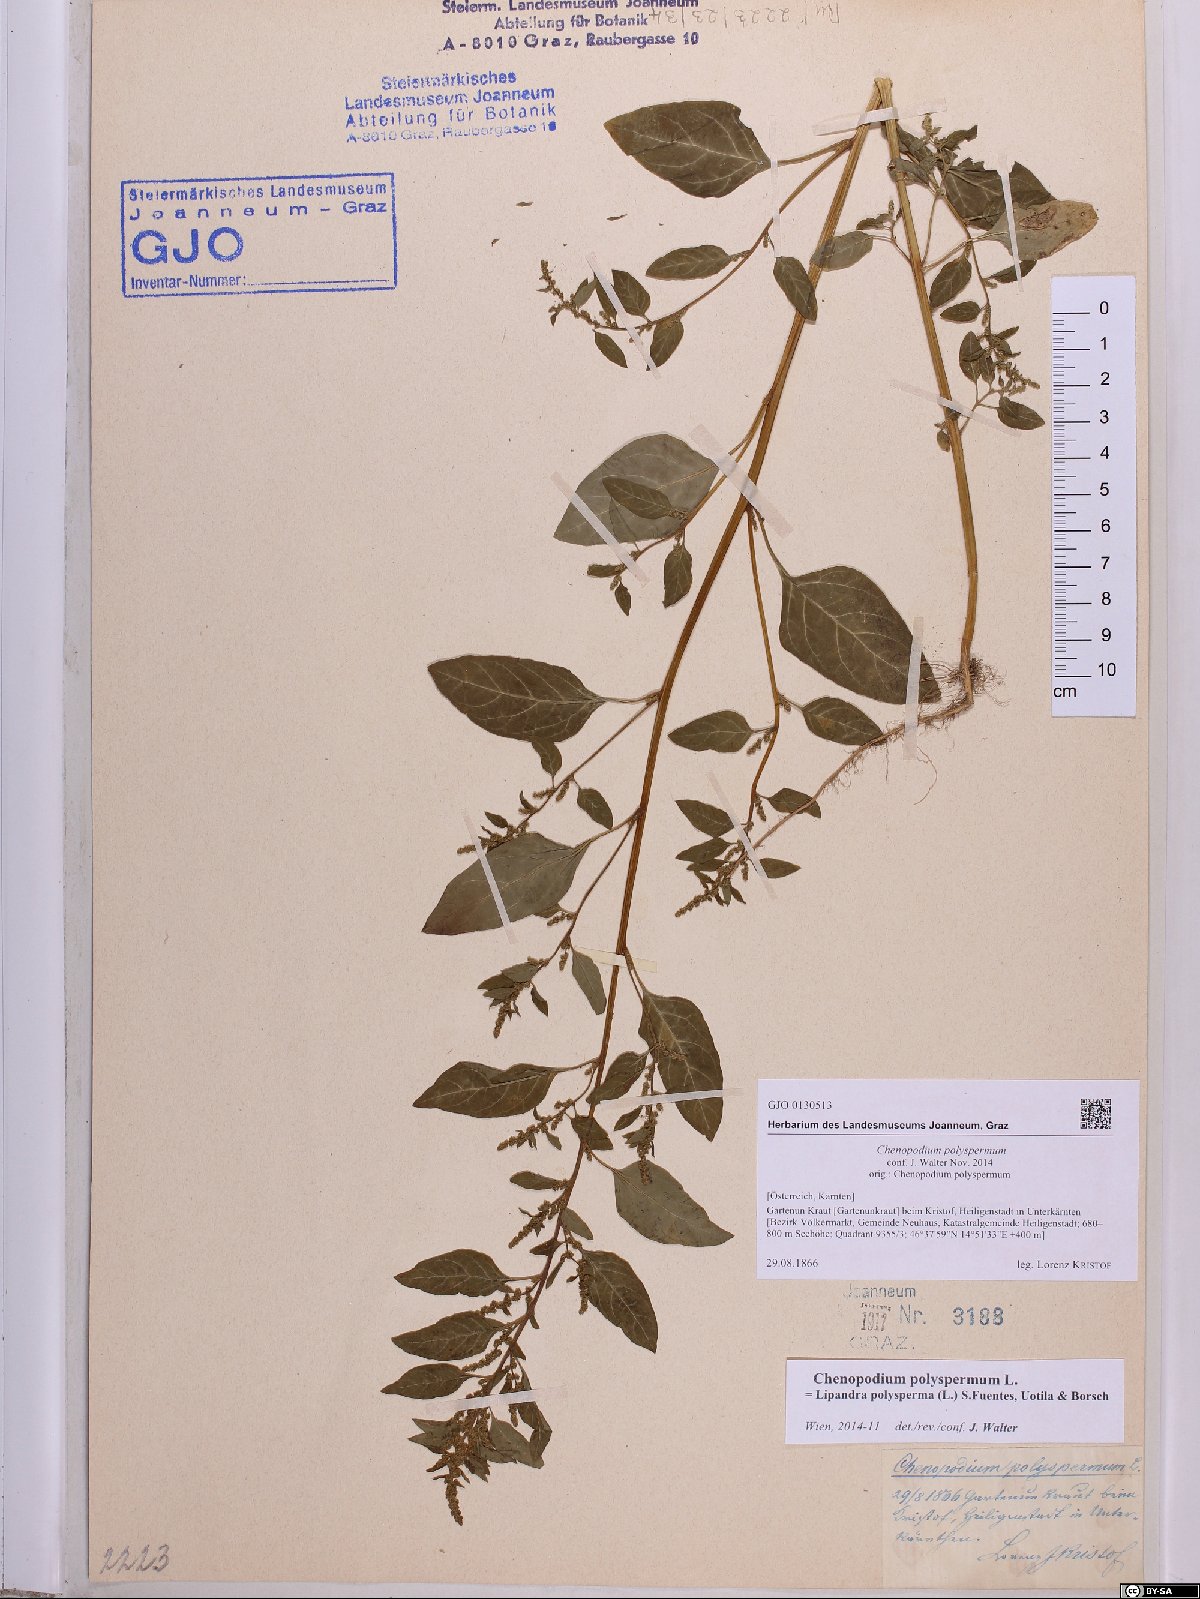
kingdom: Plantae
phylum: Tracheophyta
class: Magnoliopsida
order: Caryophyllales
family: Amaranthaceae
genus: Lipandra
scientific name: Lipandra polysperma
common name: Many-seed goosefoot
